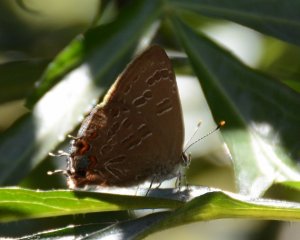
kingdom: Animalia
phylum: Arthropoda
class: Insecta
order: Lepidoptera
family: Lycaenidae
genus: Satyrium
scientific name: Satyrium liparops
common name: Striped Hairstreak
